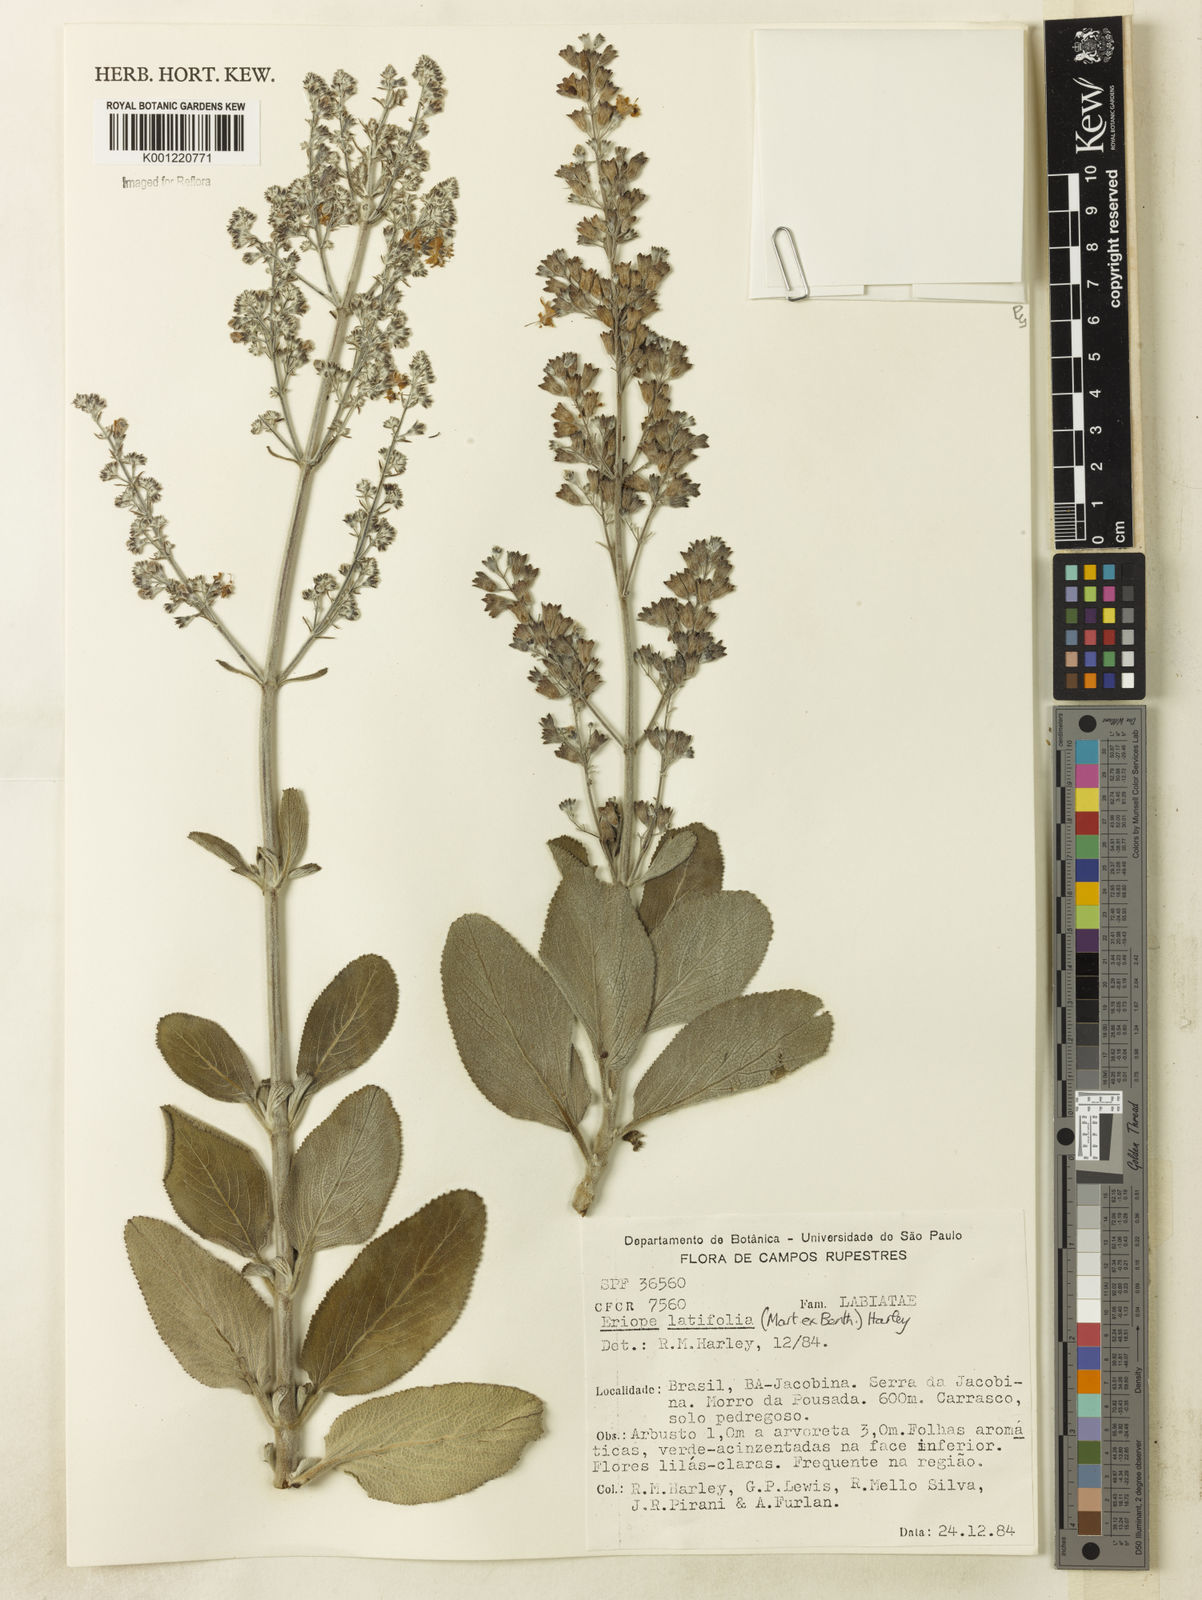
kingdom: Plantae
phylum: Tracheophyta
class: Magnoliopsida
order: Lamiales
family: Lamiaceae
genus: Eriope
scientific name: Eriope latifolia
